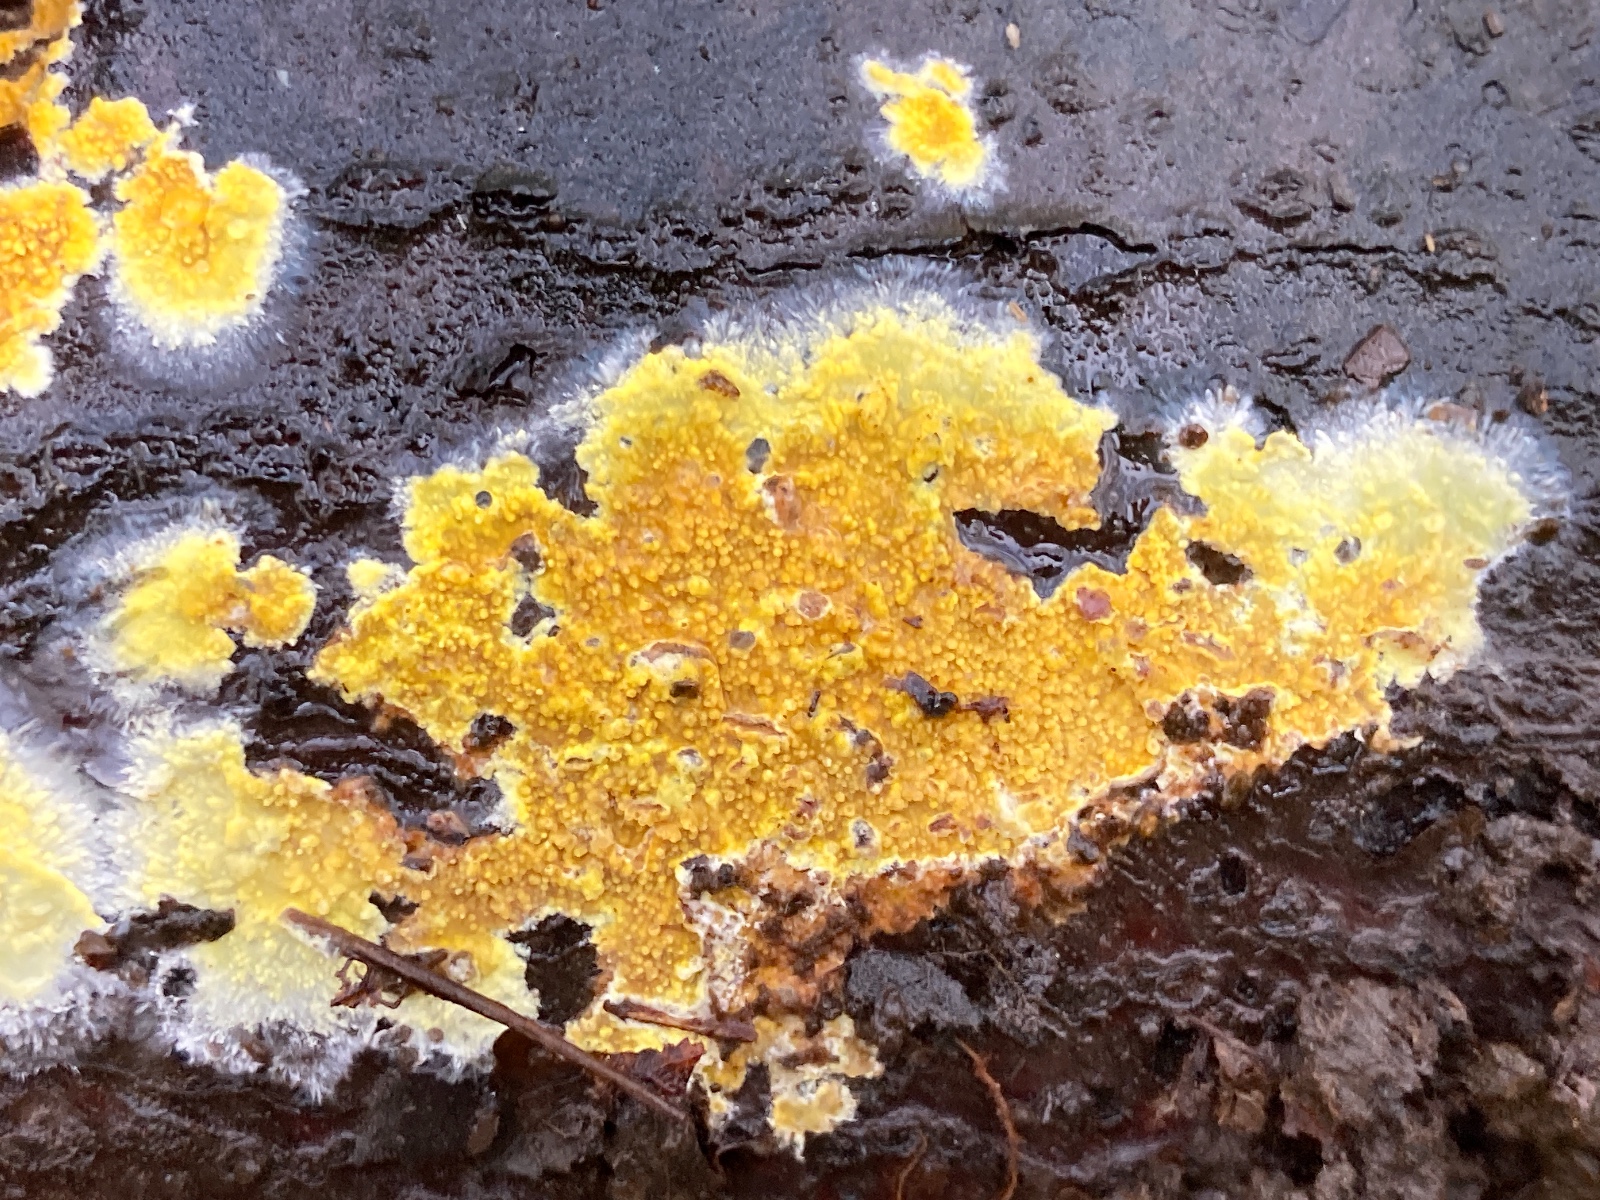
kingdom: Fungi
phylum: Basidiomycota
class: Agaricomycetes
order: Polyporales
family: Meruliaceae
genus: Phlebiodontia
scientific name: Phlebiodontia subochracea
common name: svovl-åresvamp
